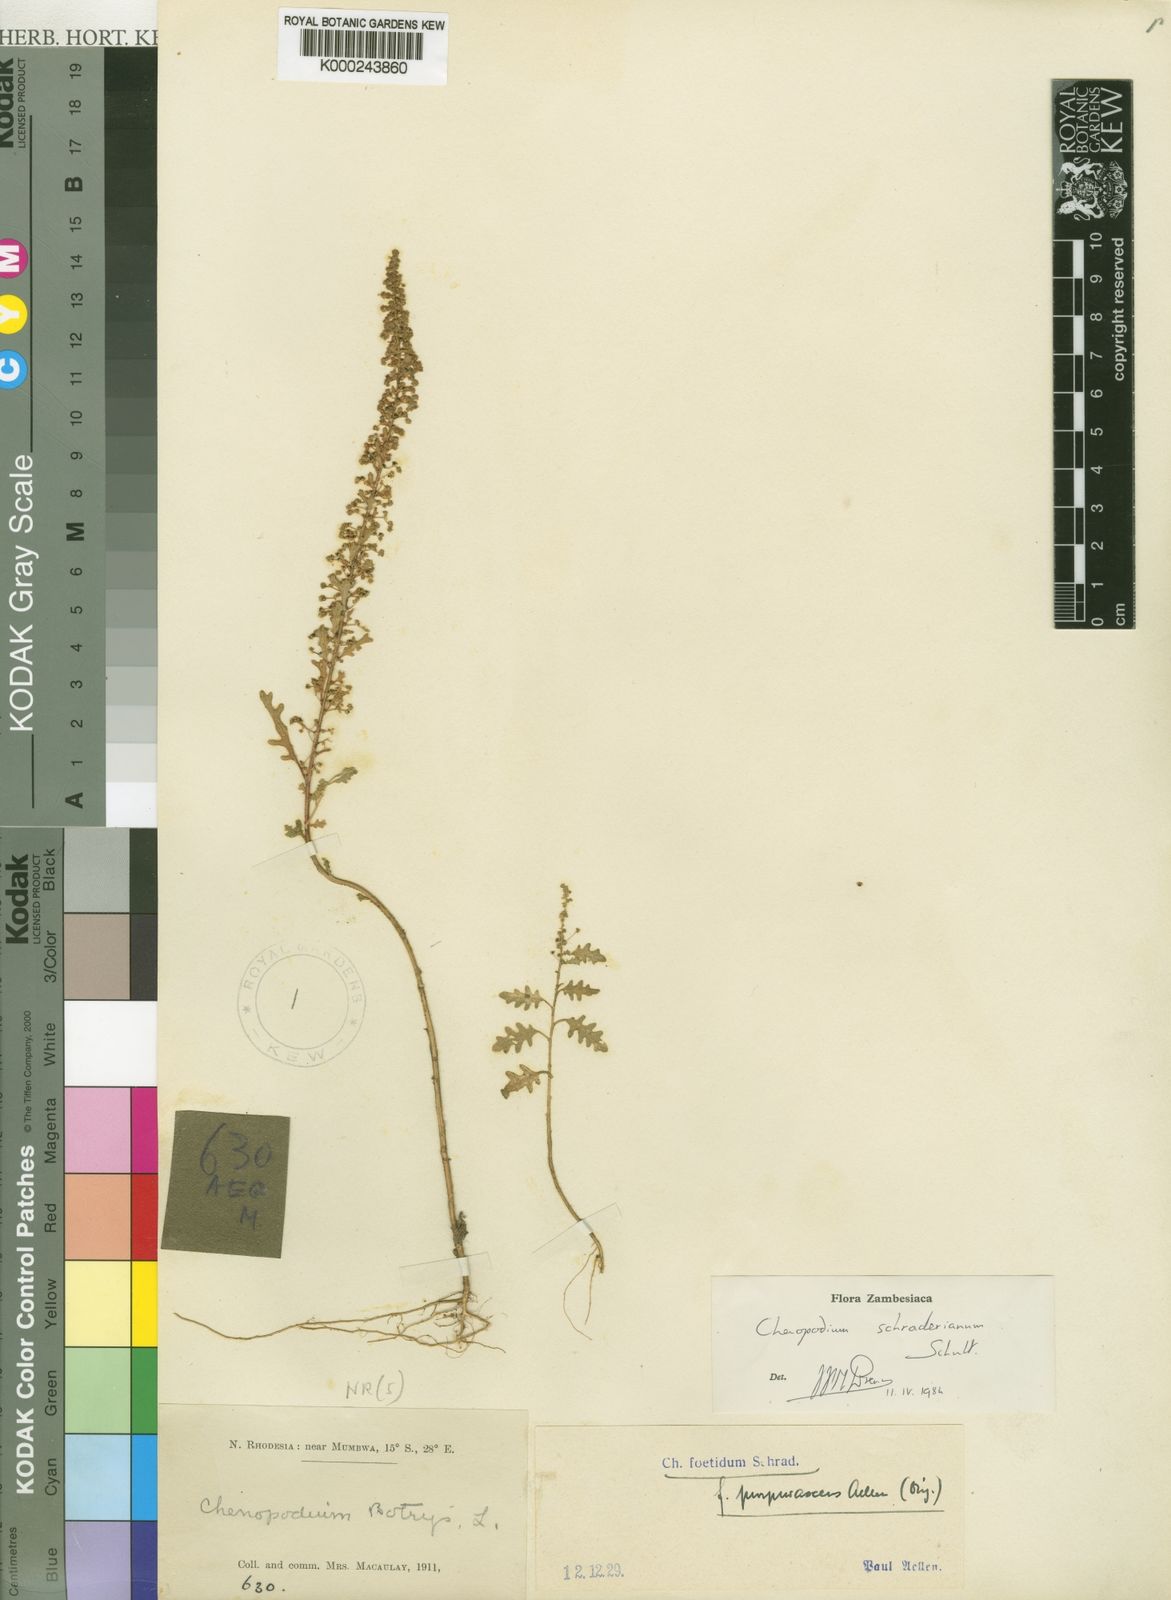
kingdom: Plantae
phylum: Tracheophyta
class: Magnoliopsida
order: Caryophyllales
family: Amaranthaceae
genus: Dysphania
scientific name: Dysphania schraderiana
